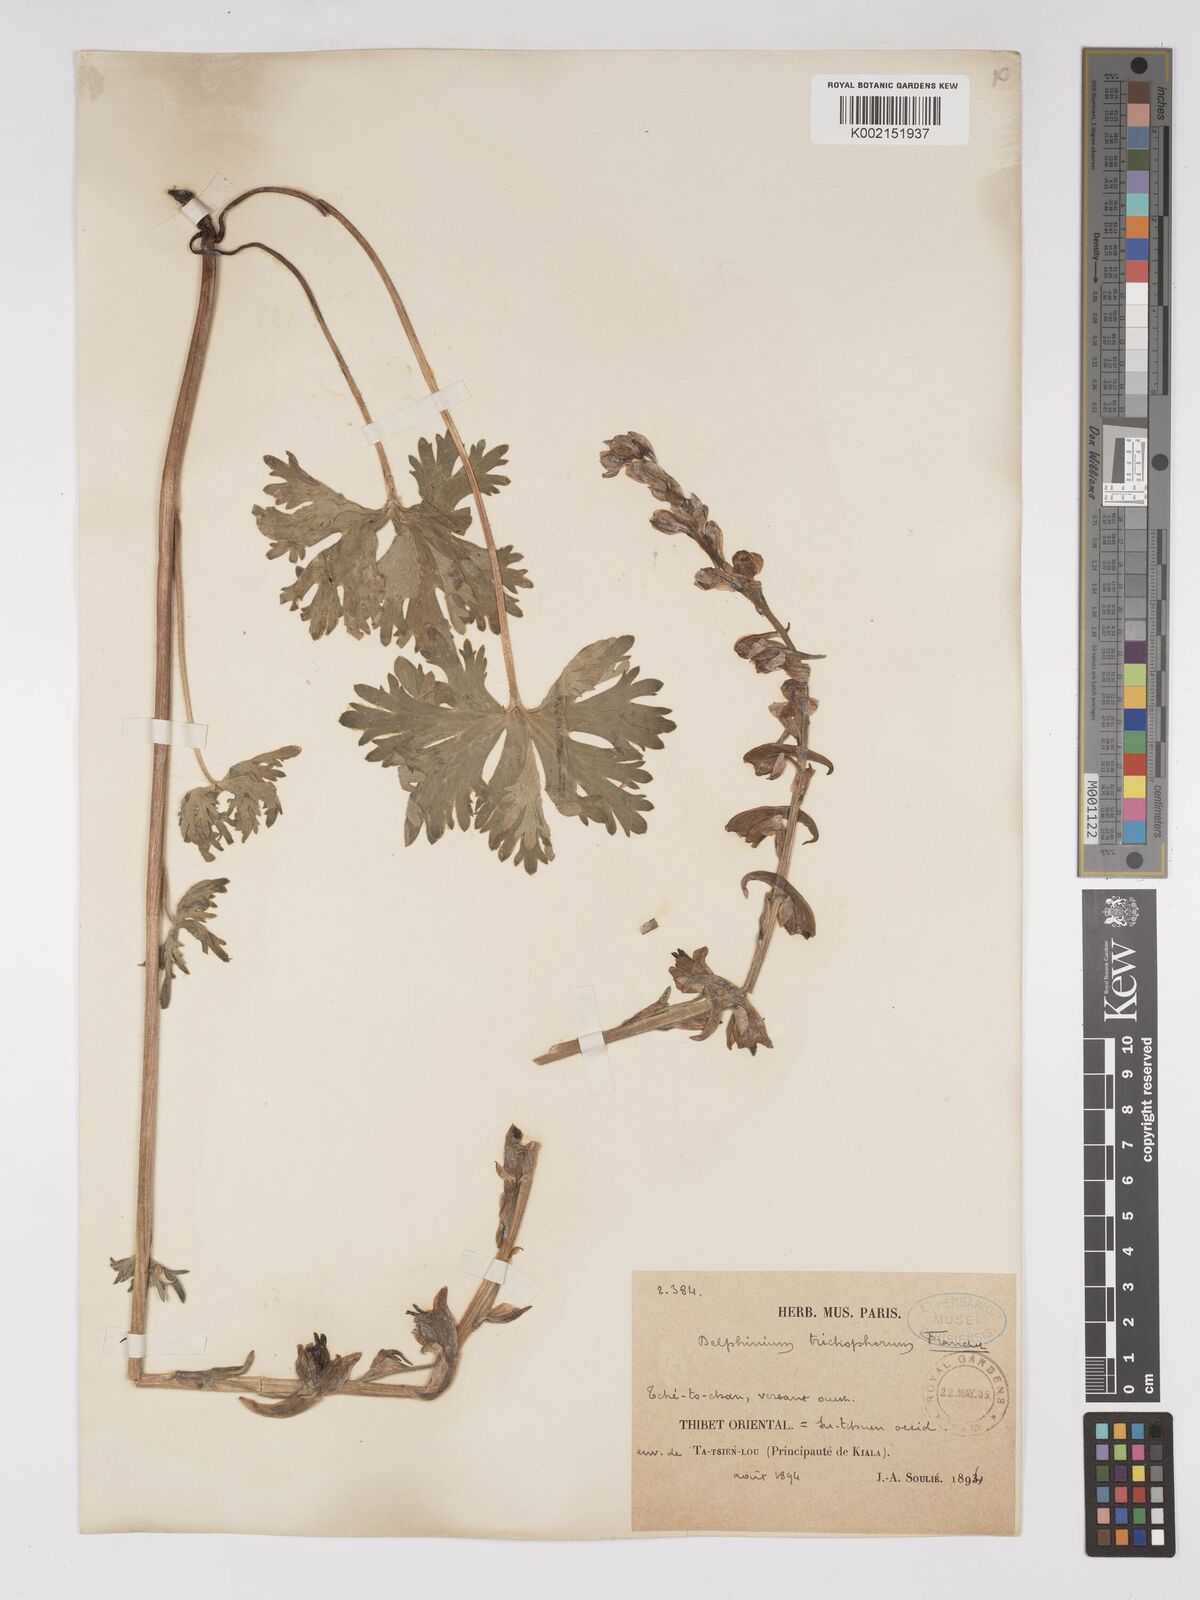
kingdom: Plantae
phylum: Tracheophyta
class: Magnoliopsida
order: Ranunculales
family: Ranunculaceae
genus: Delphinium
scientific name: Delphinium trichophorum
